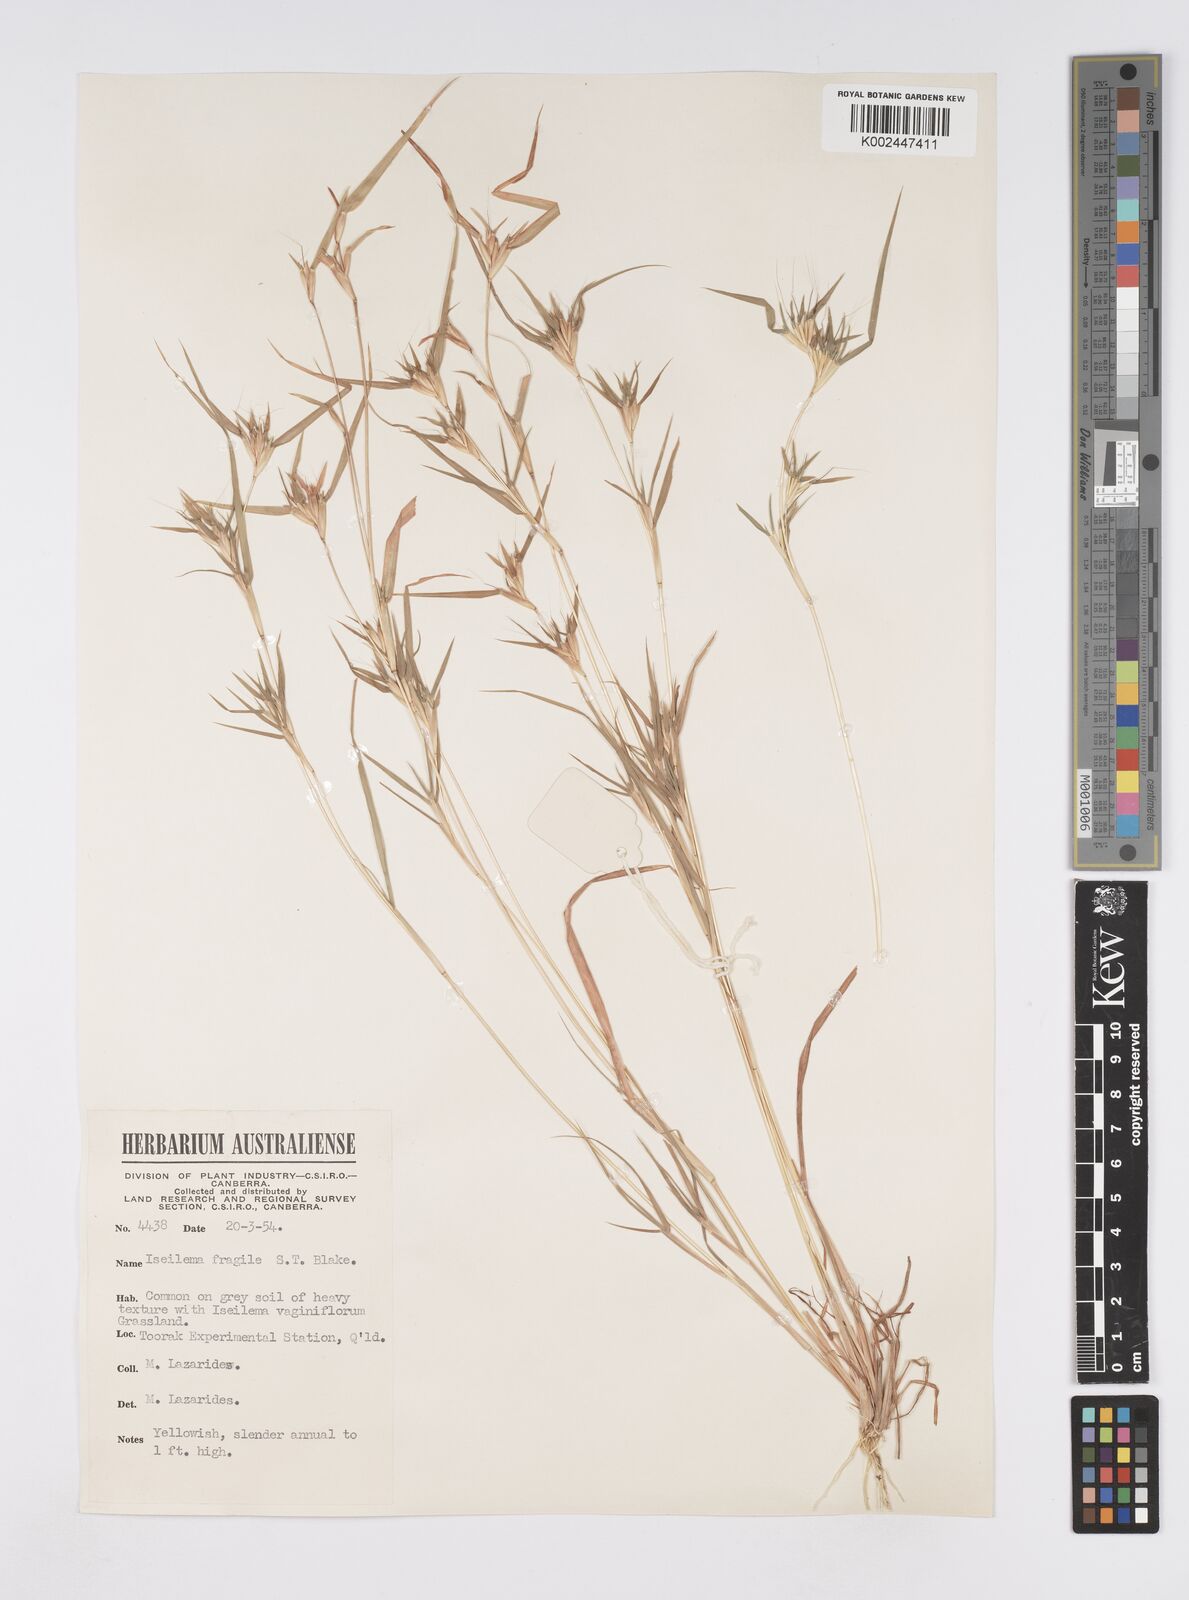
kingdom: Plantae
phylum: Tracheophyta
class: Liliopsida
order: Poales
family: Poaceae
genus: Iseilema
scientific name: Iseilema fragile
